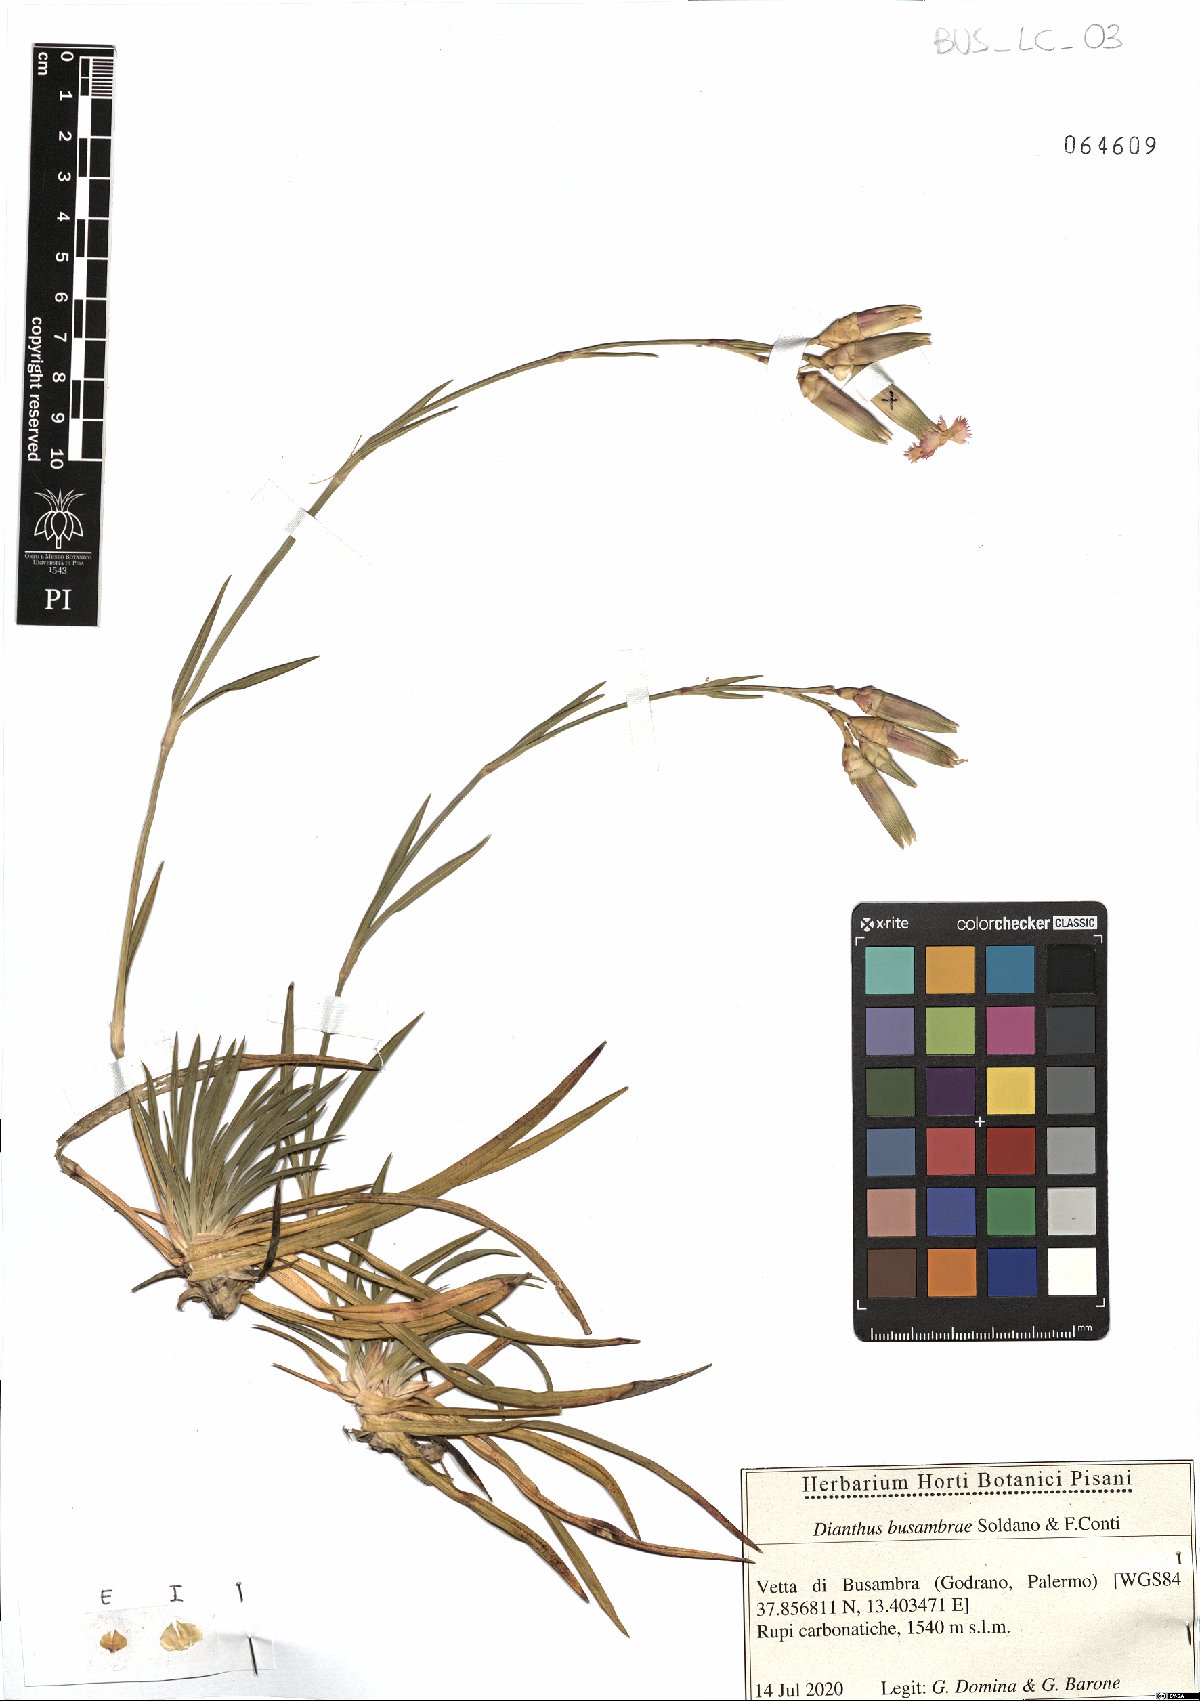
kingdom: Plantae
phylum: Tracheophyta
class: Magnoliopsida
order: Caryophyllales
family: Caryophyllaceae
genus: Dianthus
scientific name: Dianthus busambrae
